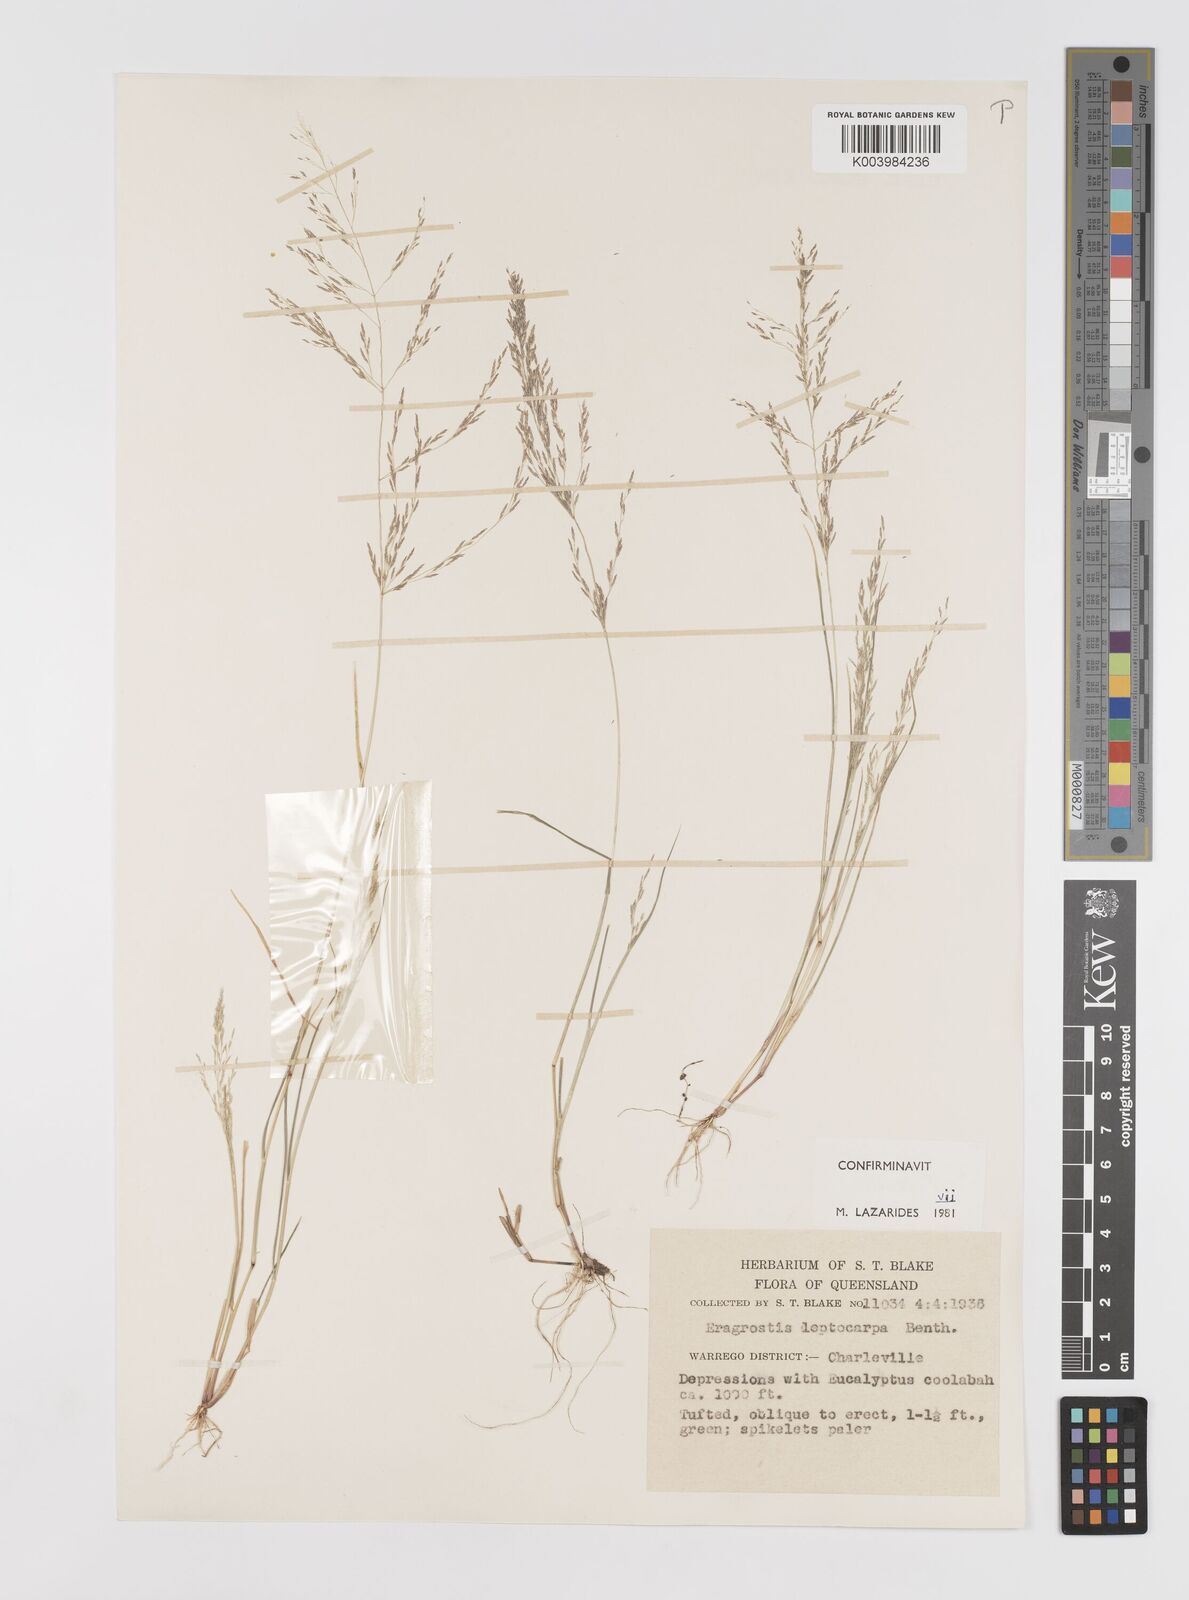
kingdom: Plantae
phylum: Tracheophyta
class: Liliopsida
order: Poales
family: Poaceae
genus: Eragrostis
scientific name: Eragrostis leptocarpa
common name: Drooping love grass
